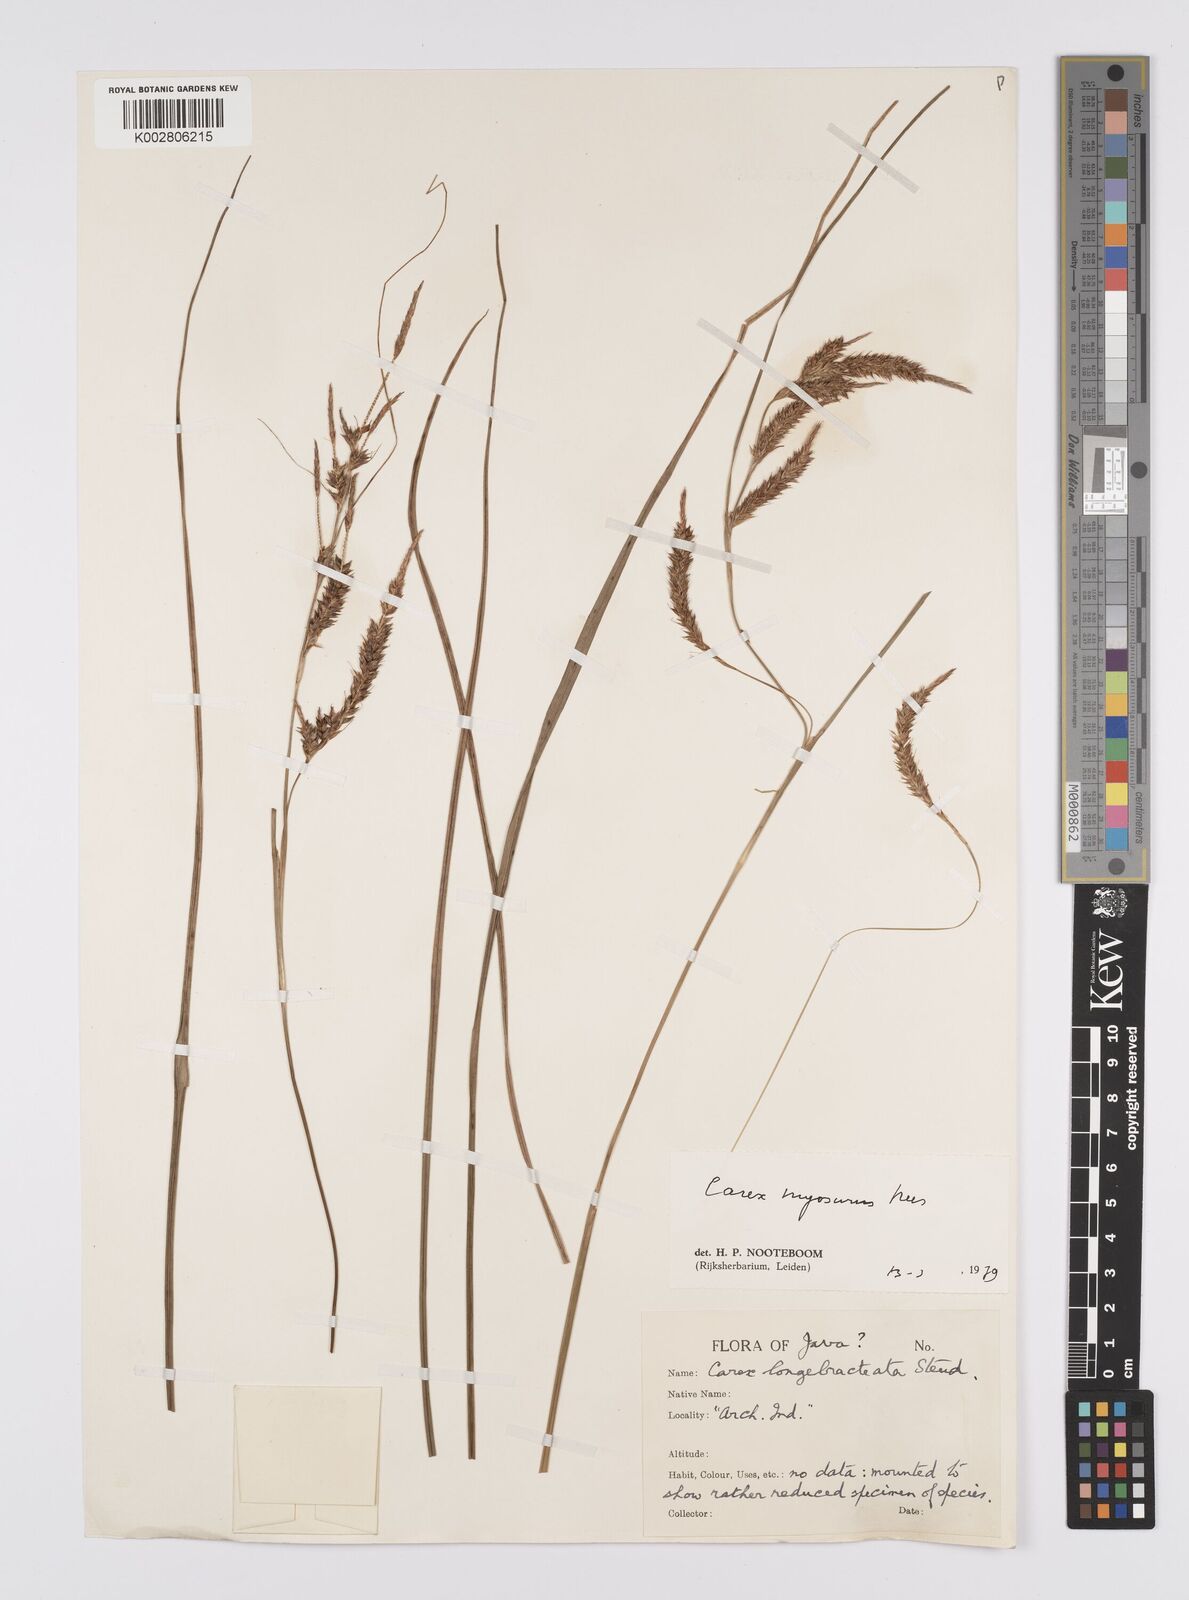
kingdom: Plantae
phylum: Tracheophyta
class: Liliopsida
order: Poales
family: Cyperaceae
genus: Carex
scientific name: Carex myosurus
